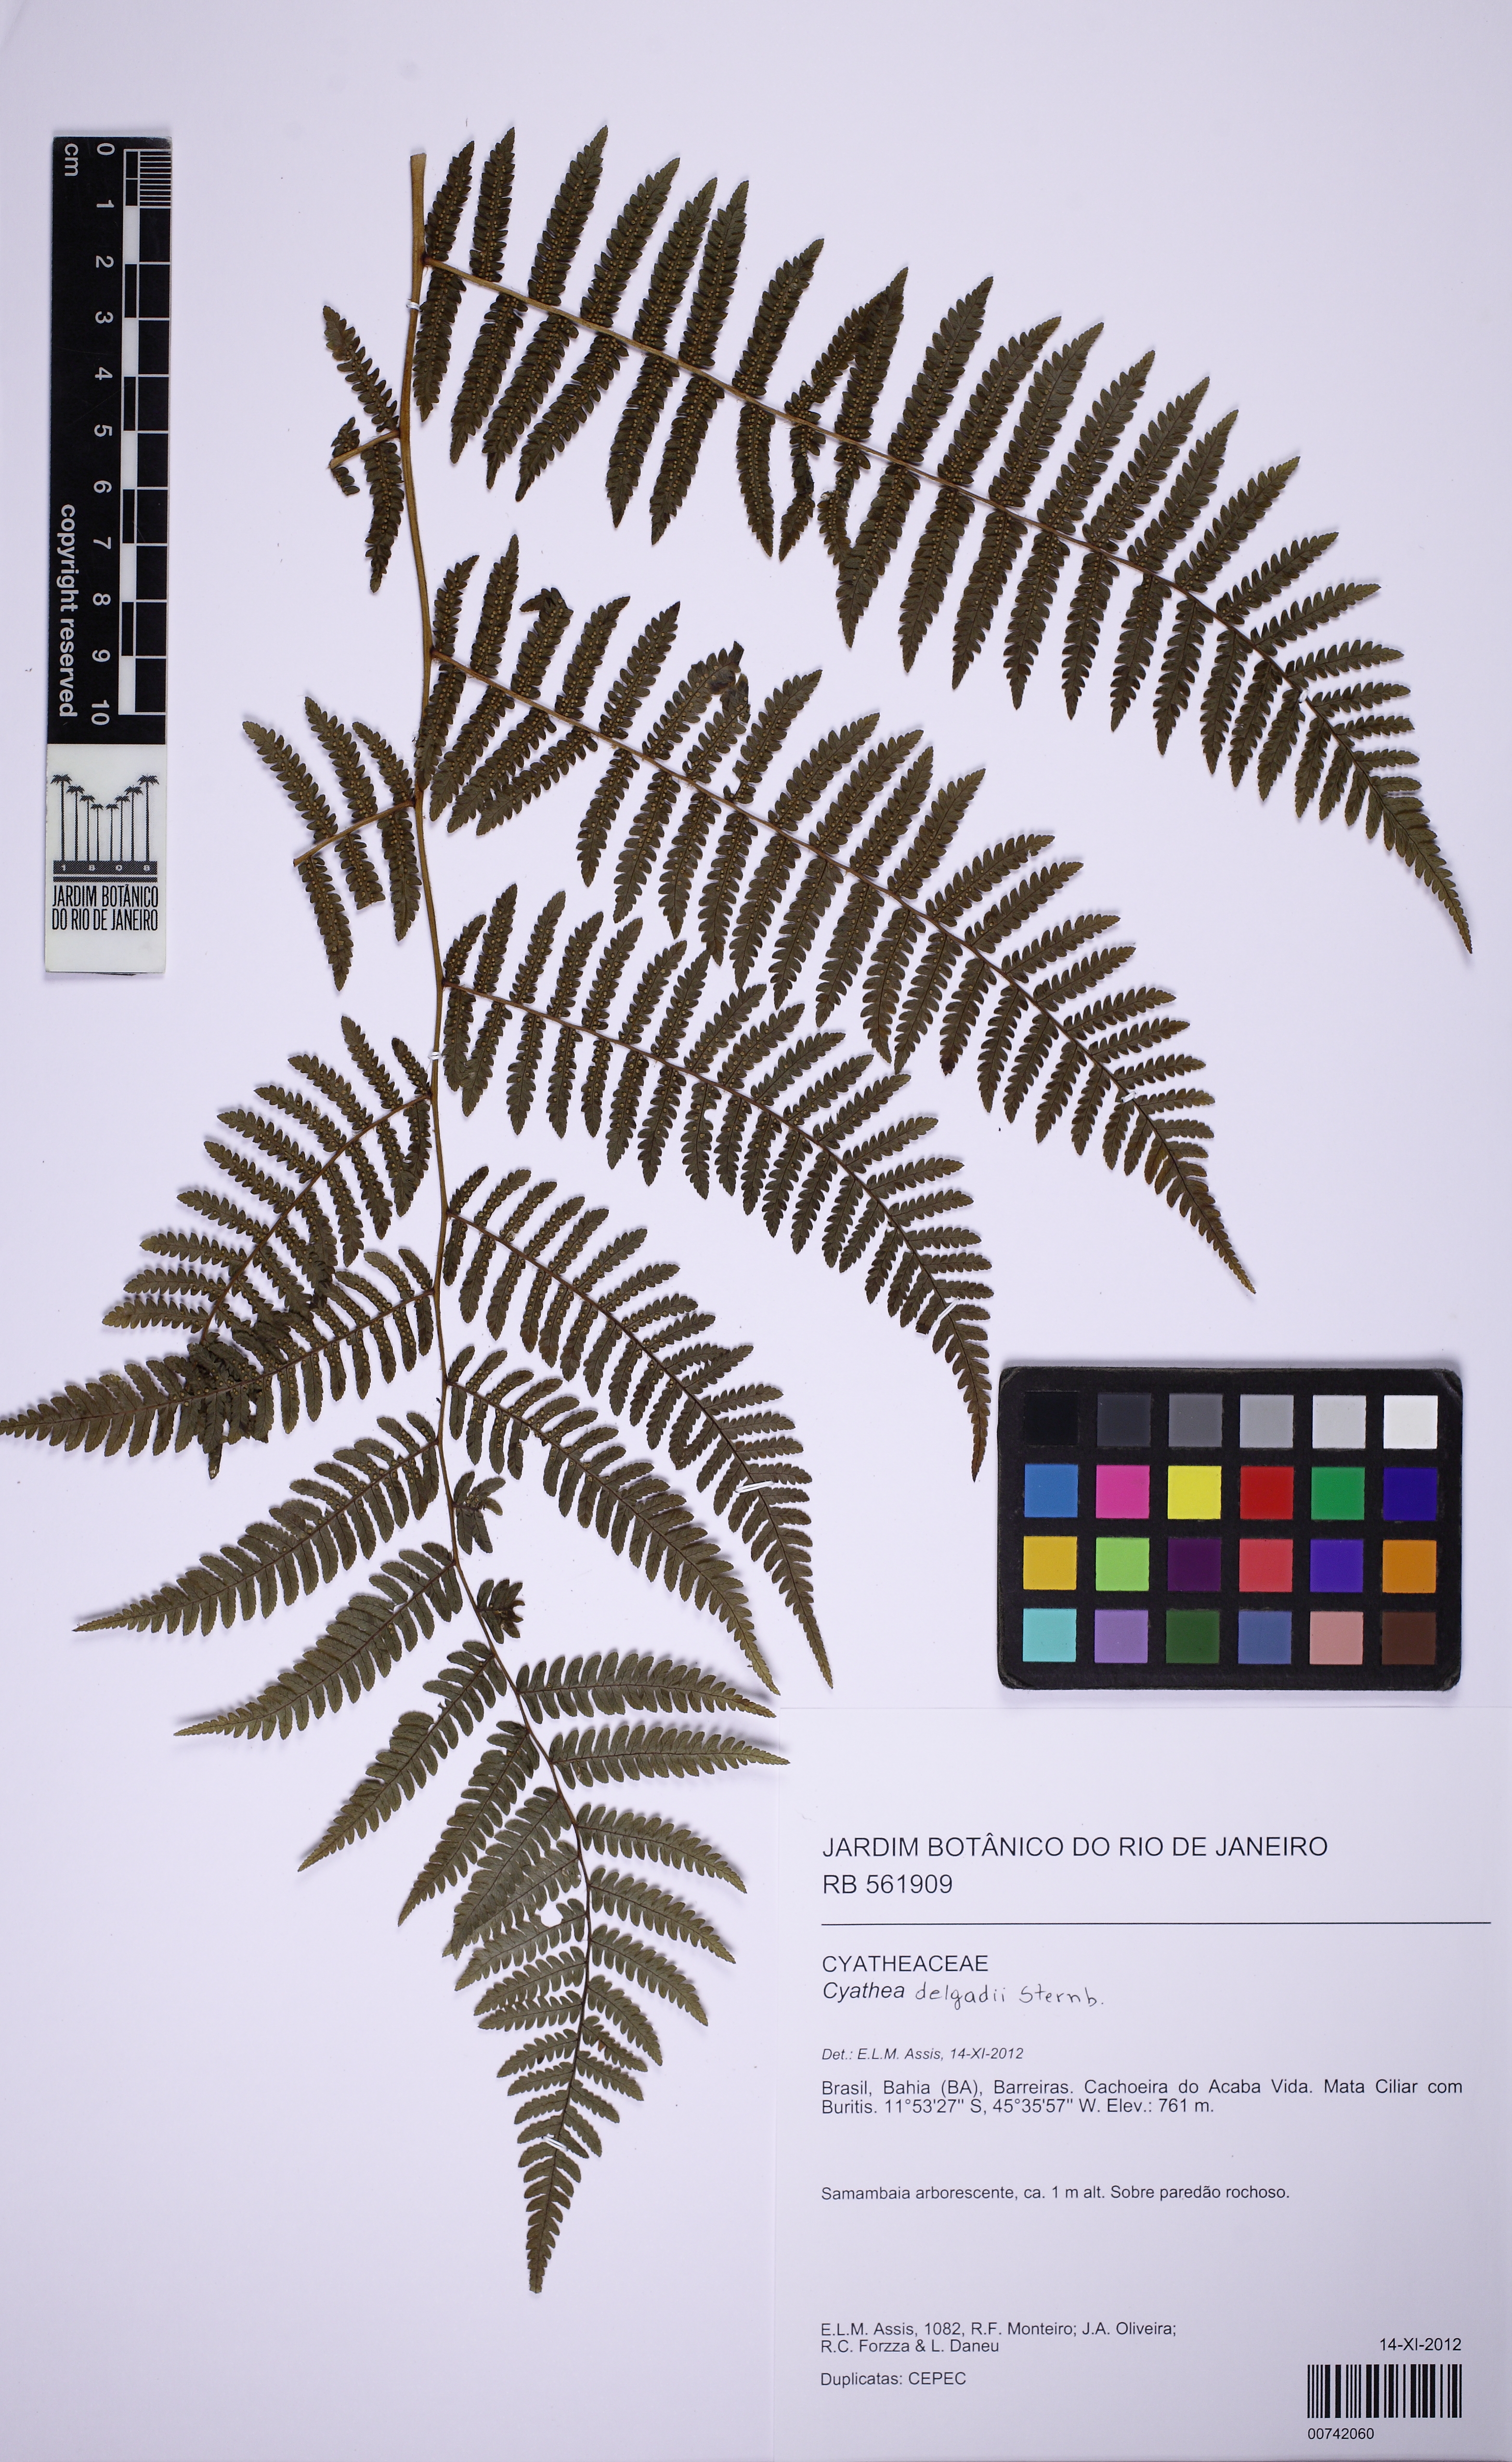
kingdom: Plantae
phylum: Tracheophyta
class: Polypodiopsida
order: Cyatheales
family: Cyatheaceae
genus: Cyathea
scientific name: Cyathea
